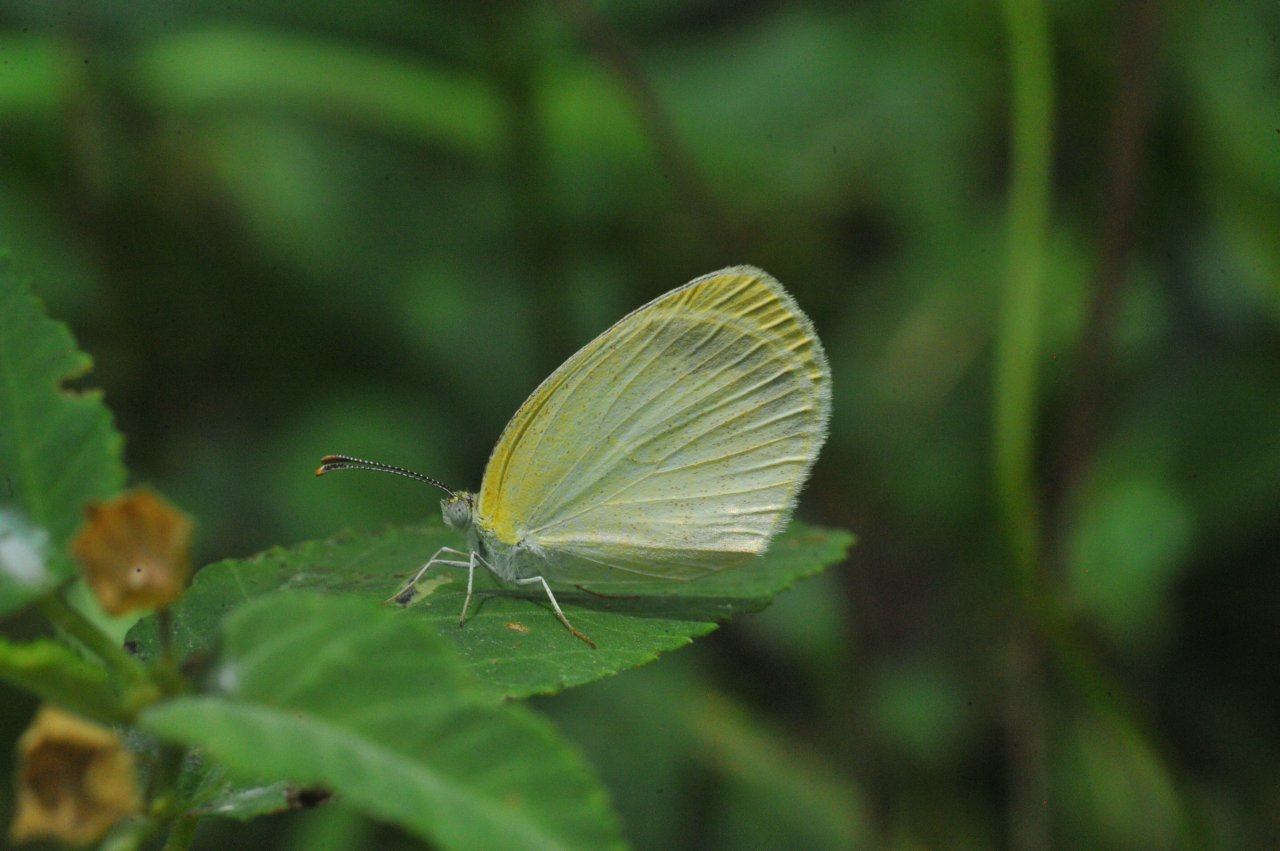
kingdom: Animalia
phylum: Arthropoda
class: Insecta
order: Lepidoptera
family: Pieridae
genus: Eurema
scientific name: Eurema elathea
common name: Banded Yellow
